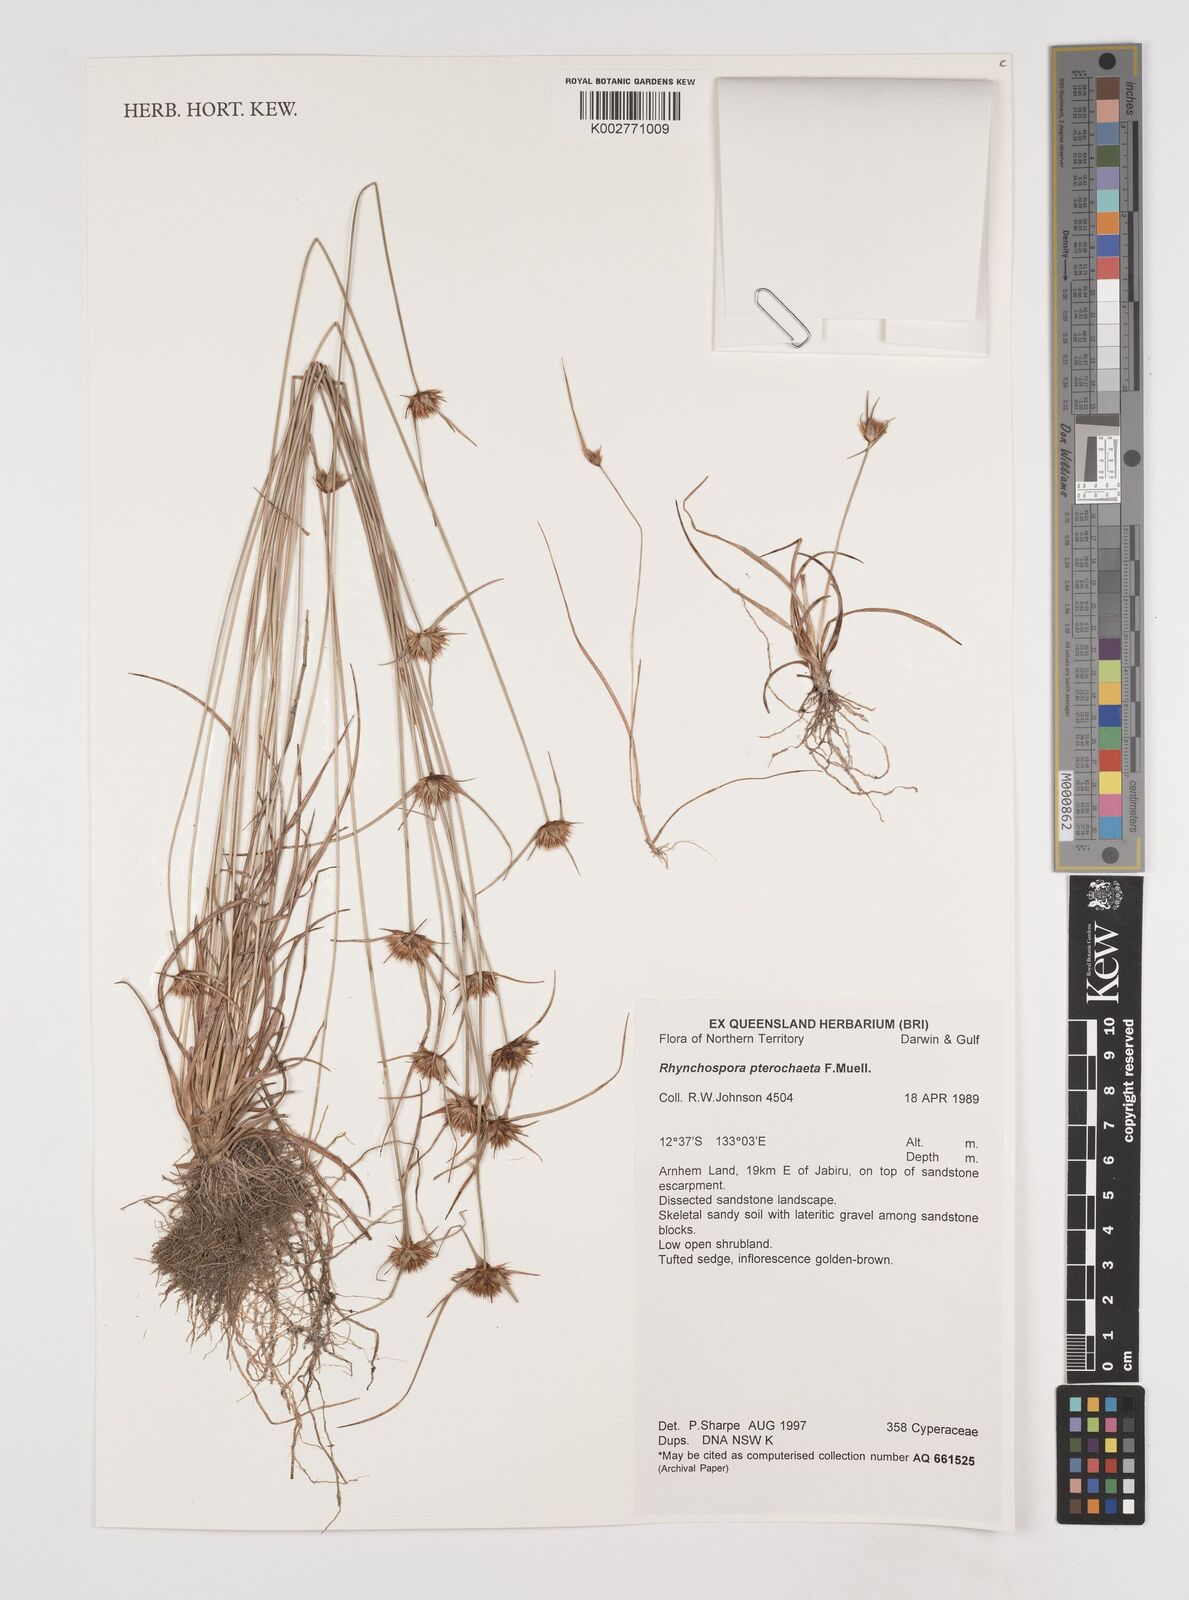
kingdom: Plantae
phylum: Tracheophyta
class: Liliopsida
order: Poales
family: Cyperaceae
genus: Rhynchospora
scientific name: Rhynchospora pterochaeta
